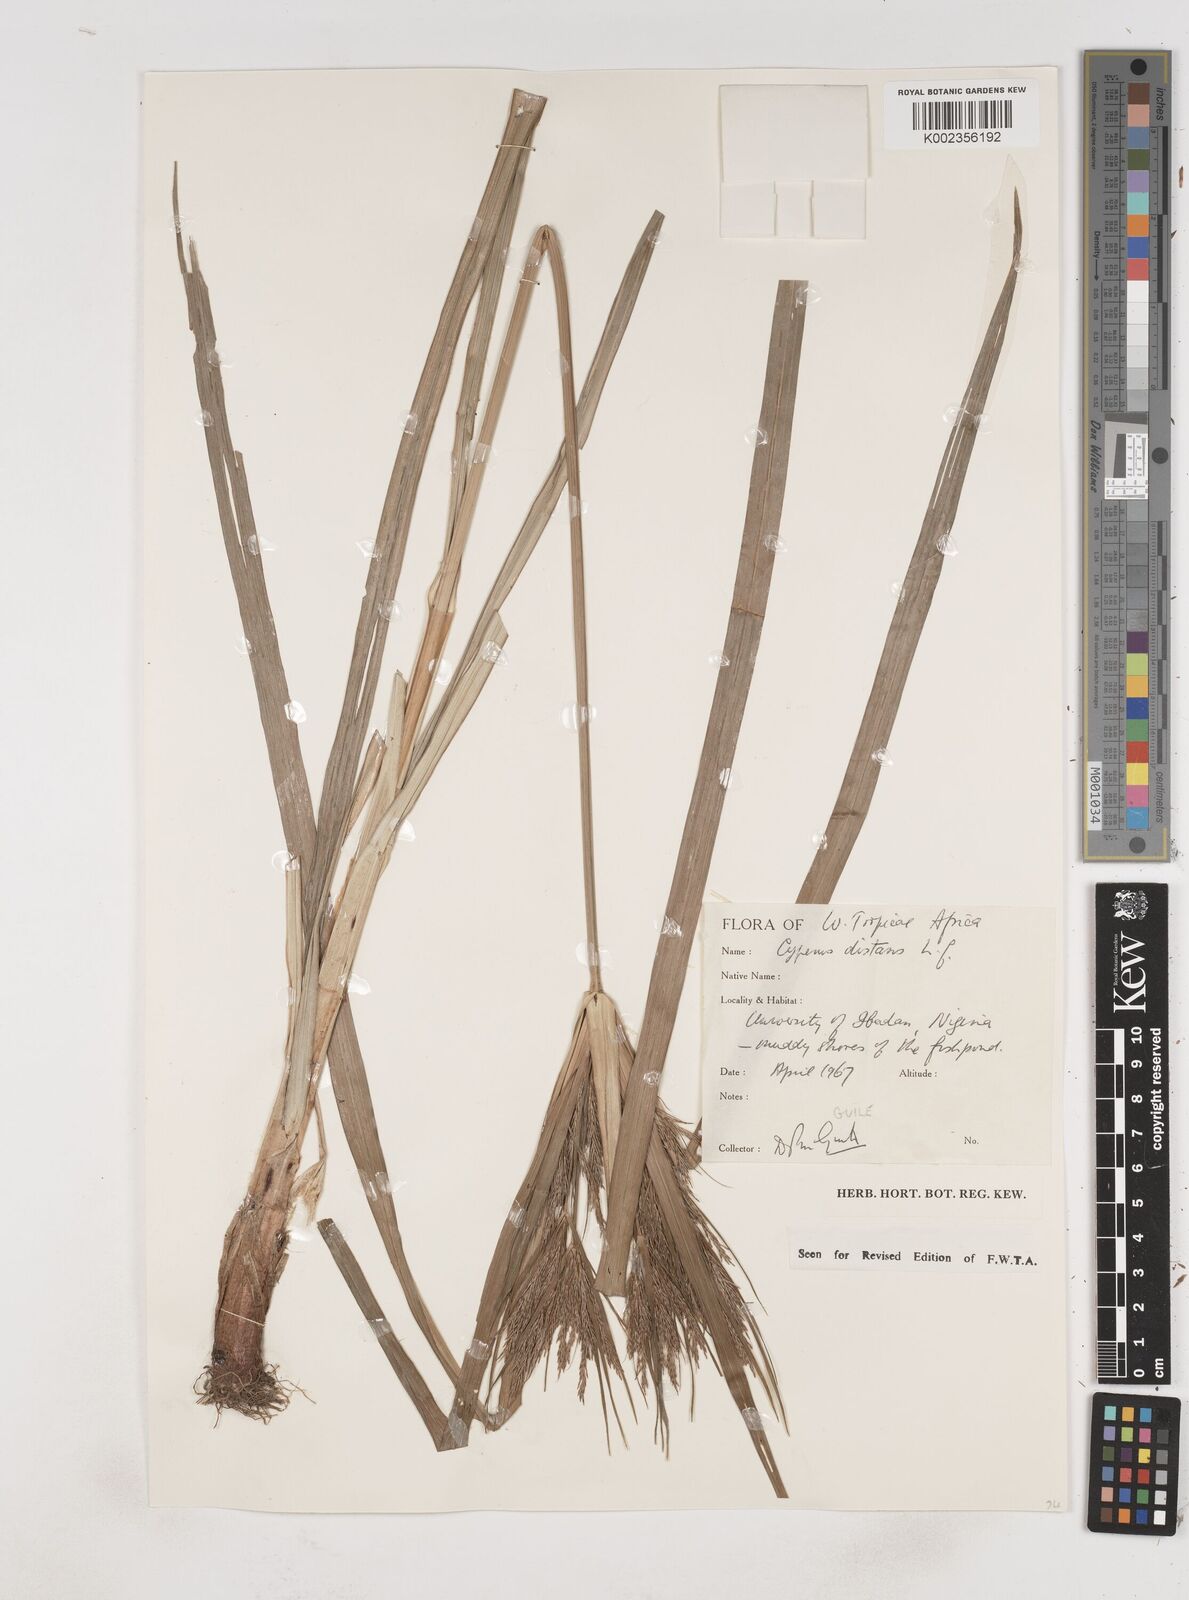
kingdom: Plantae
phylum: Tracheophyta
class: Liliopsida
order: Poales
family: Cyperaceae
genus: Cyperus
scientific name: Cyperus distans
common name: Slender cyperus
